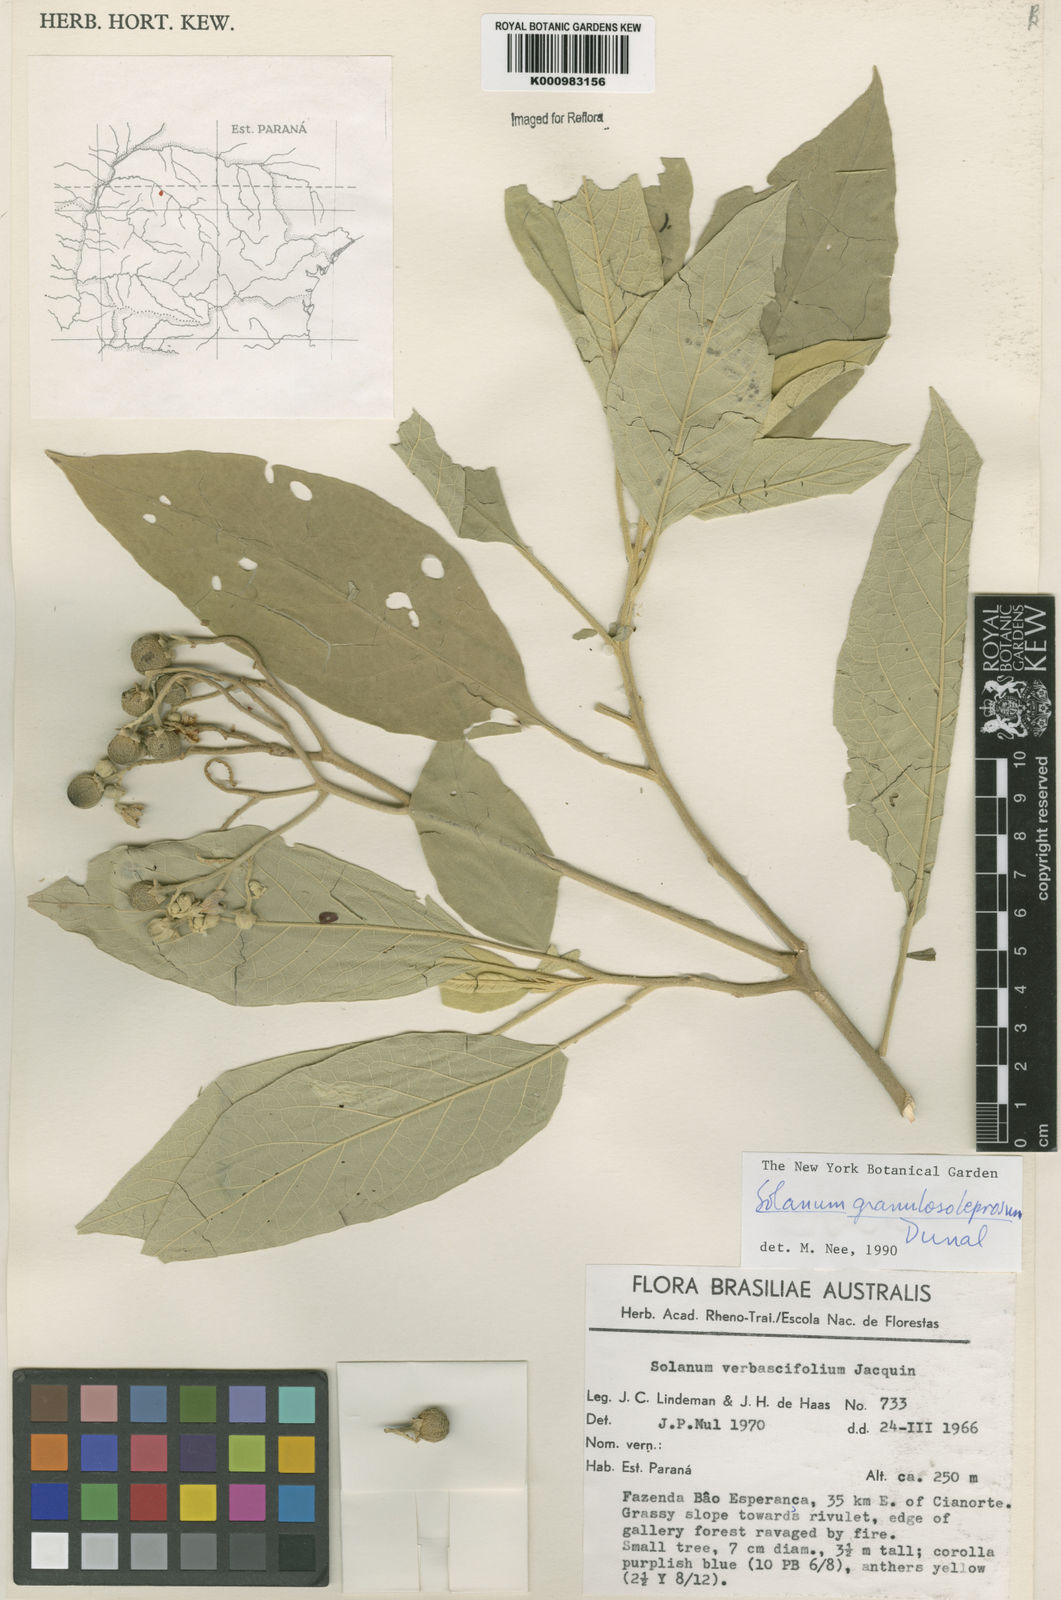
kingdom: Plantae
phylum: Tracheophyta
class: Magnoliopsida
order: Solanales
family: Solanaceae
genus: Solanum
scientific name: Solanum granulosoleprosum
